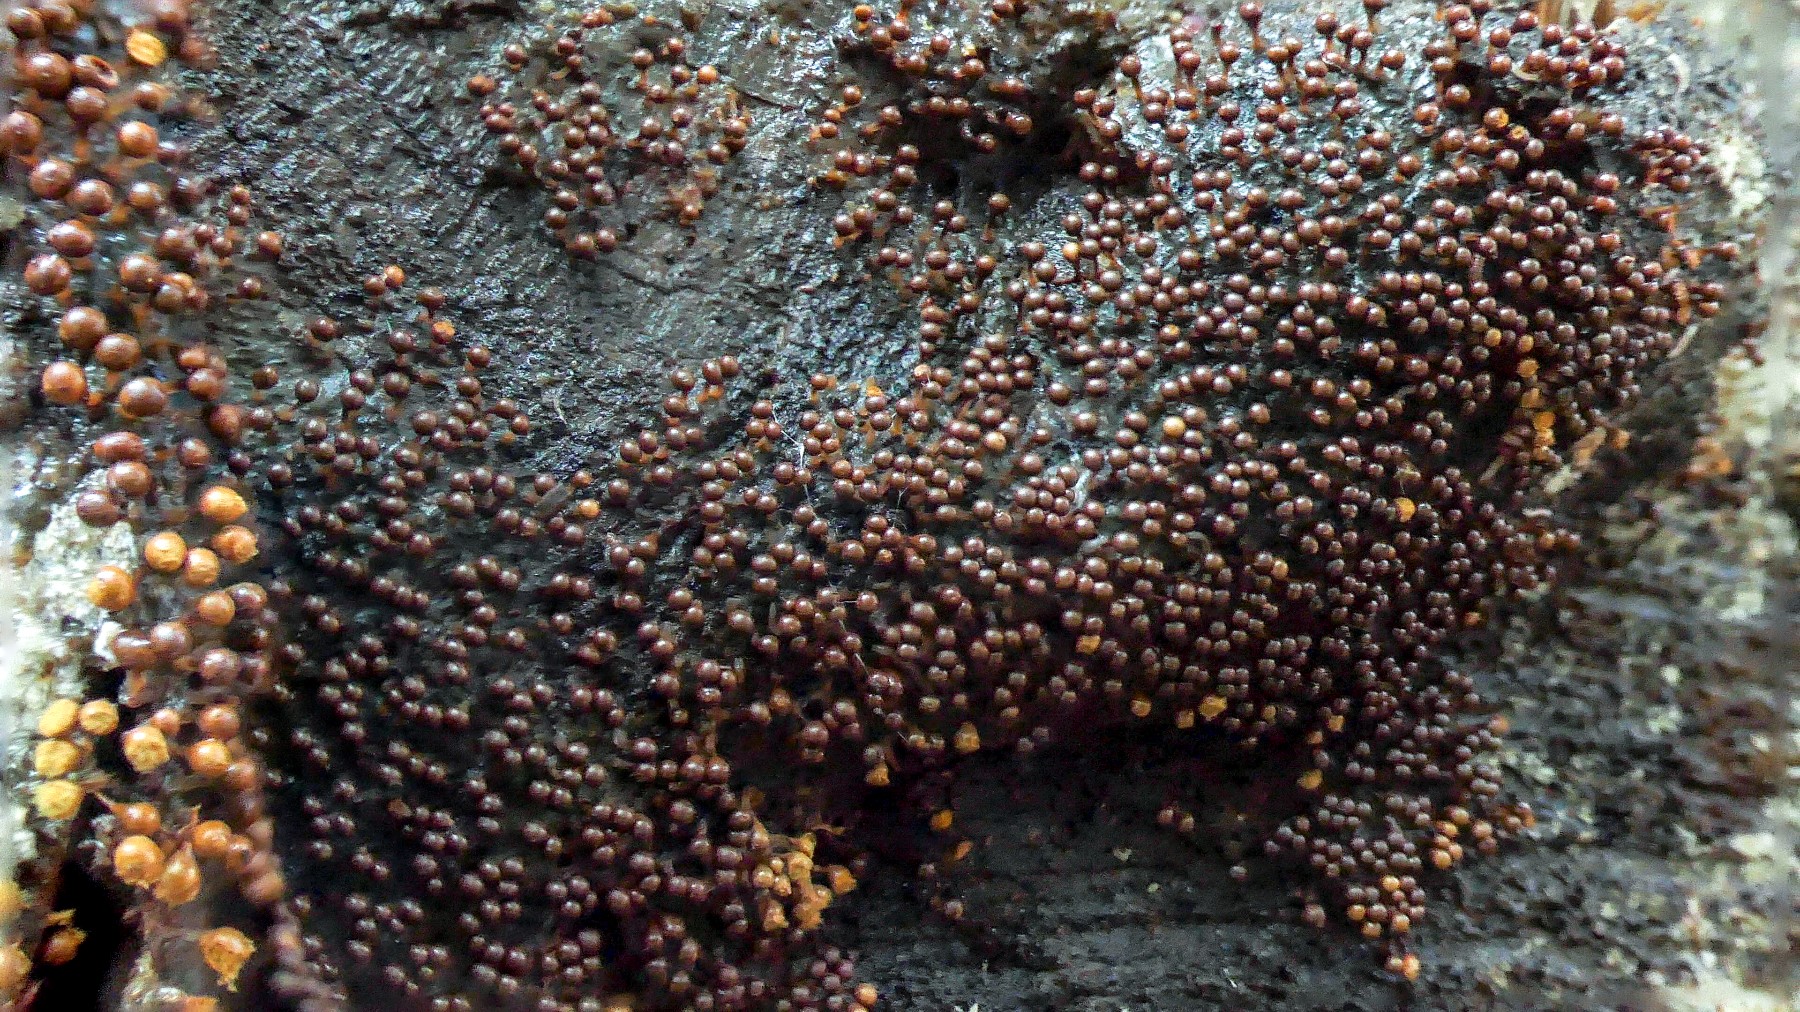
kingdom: Protozoa
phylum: Mycetozoa
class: Myxomycetes
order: Trichiales
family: Trichiaceae
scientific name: Trichiaceae
